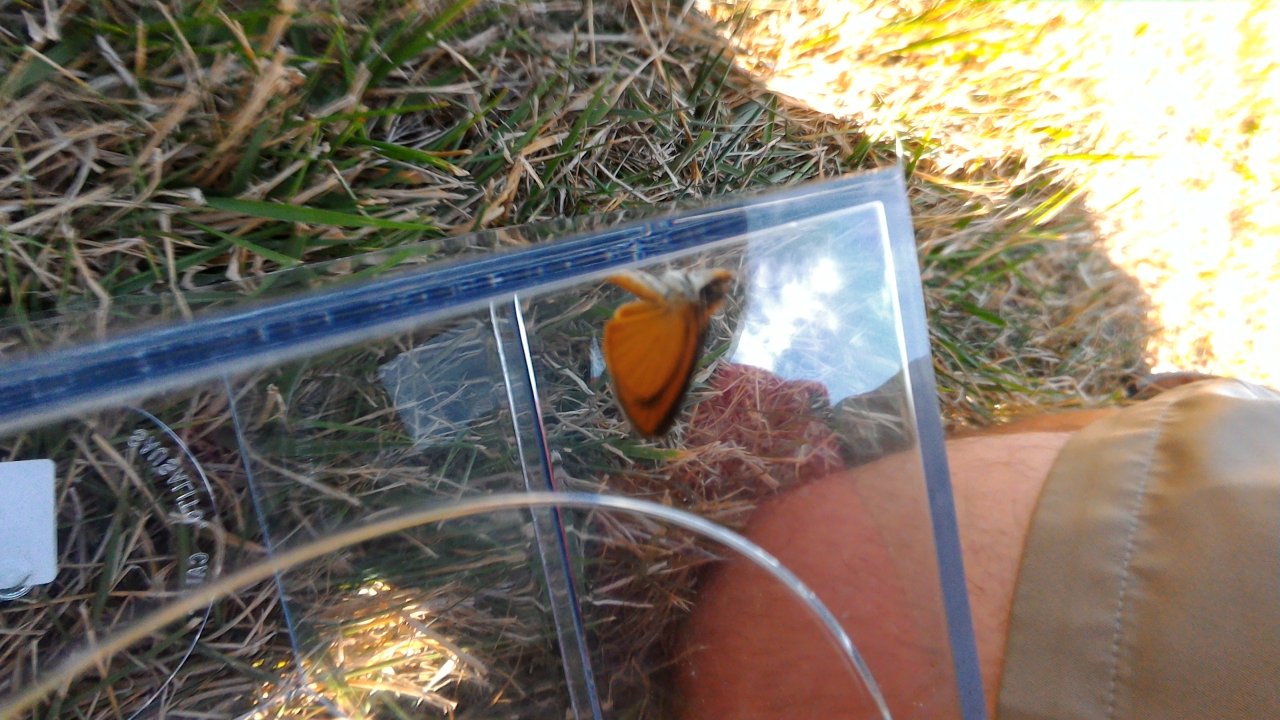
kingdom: Animalia
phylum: Arthropoda
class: Insecta
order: Lepidoptera
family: Hesperiidae
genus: Ancyloxypha
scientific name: Ancyloxypha numitor
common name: Least Skipper
